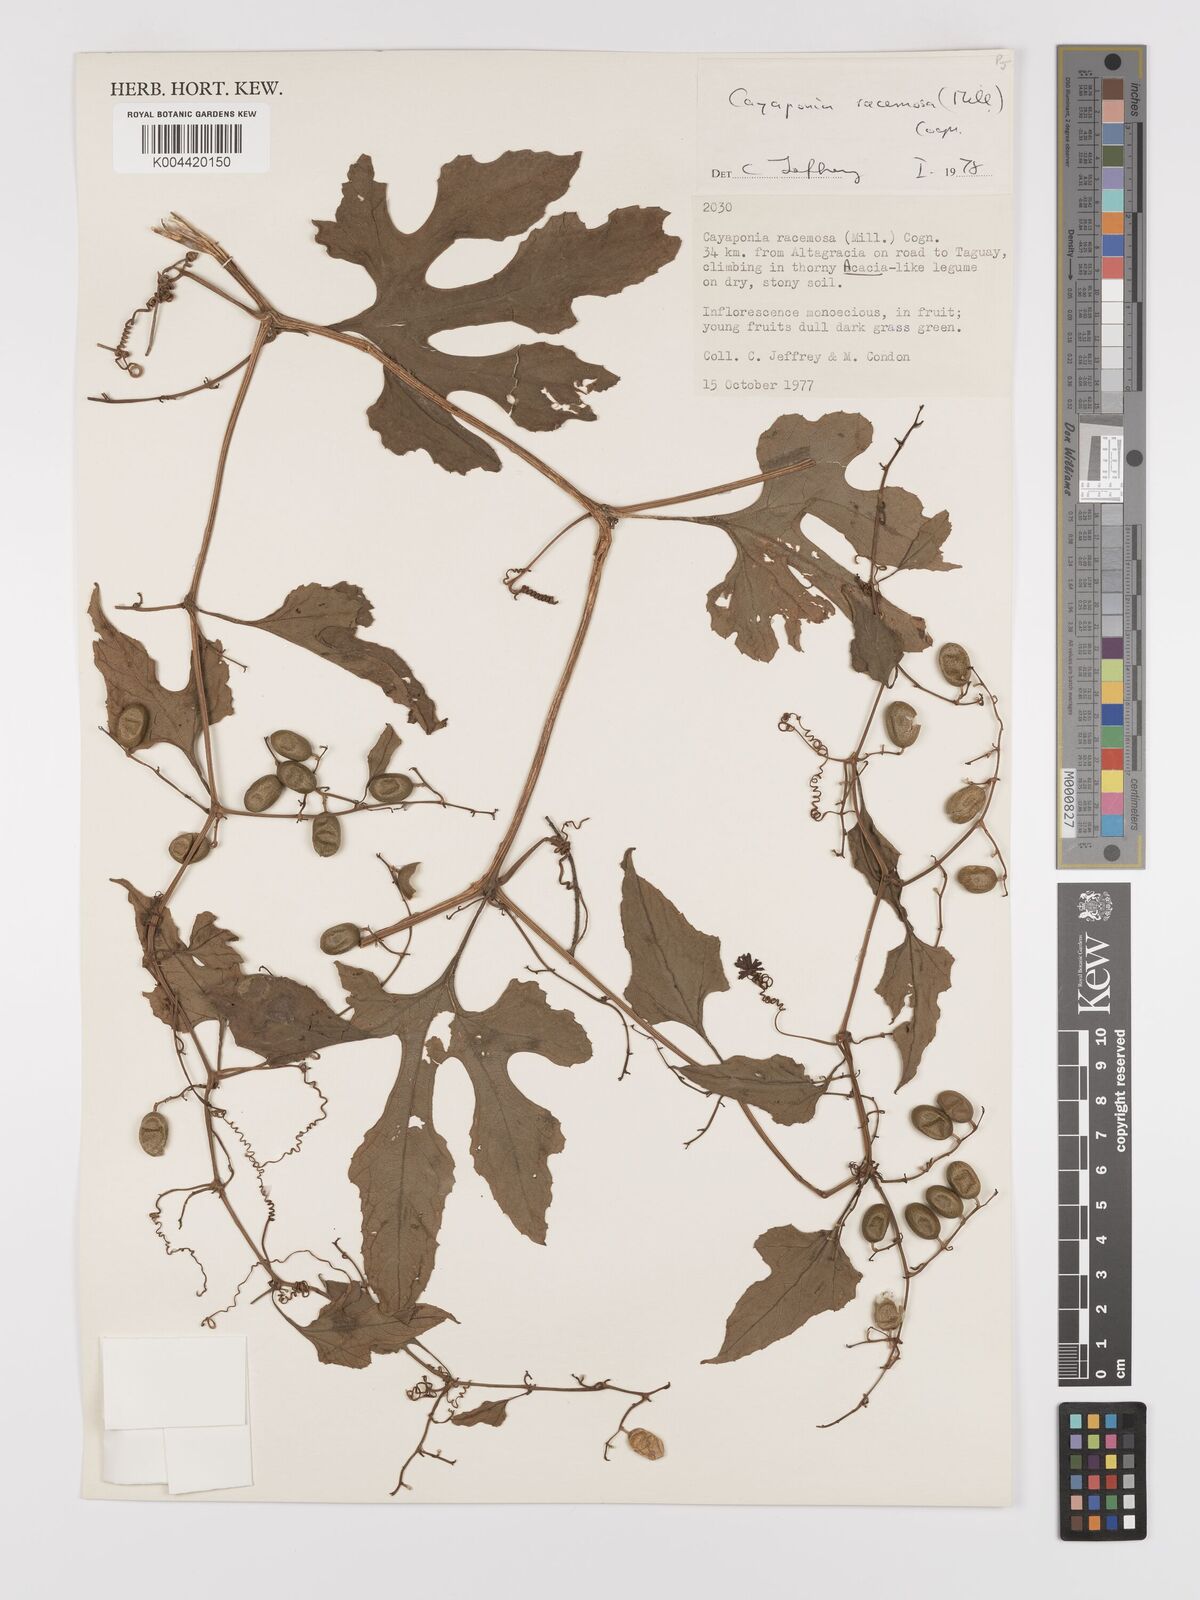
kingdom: Plantae
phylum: Tracheophyta
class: Magnoliopsida
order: Cucurbitales
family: Cucurbitaceae
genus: Cayaponia
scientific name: Cayaponia racemosa
